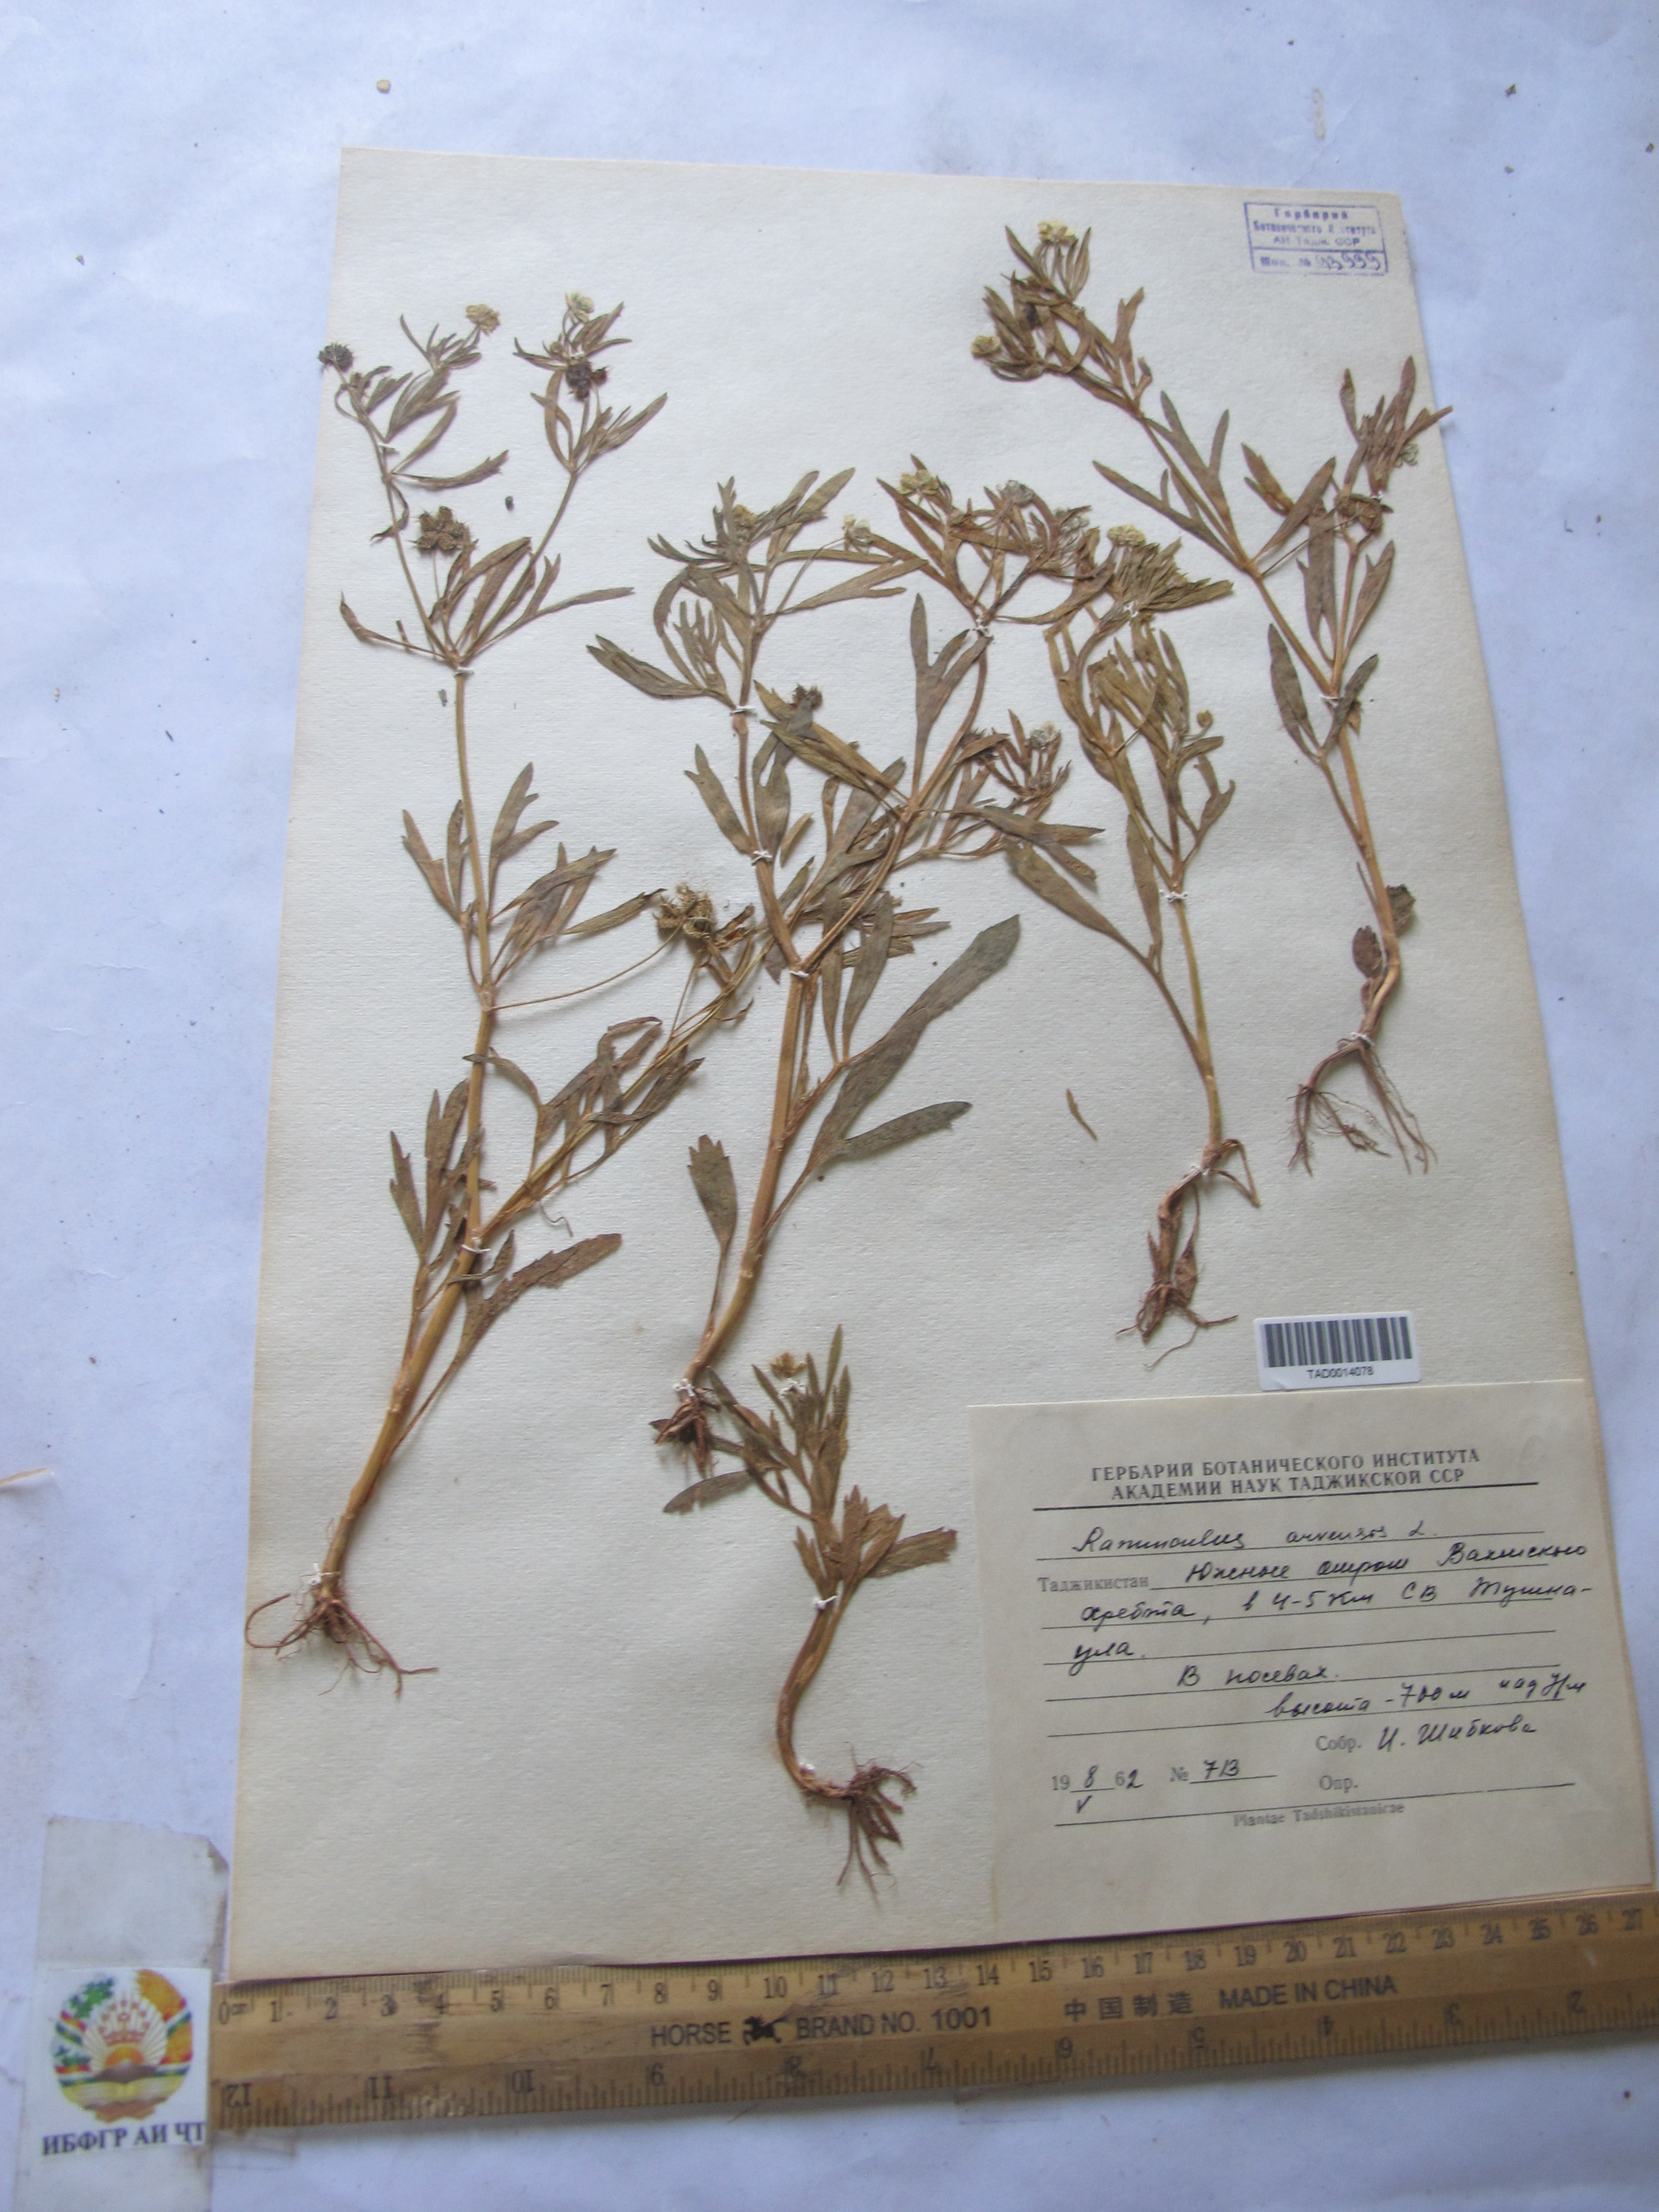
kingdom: Plantae
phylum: Tracheophyta
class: Magnoliopsida
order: Ranunculales
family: Ranunculaceae
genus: Ranunculus
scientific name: Ranunculus arvensis
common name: Corn buttercup
